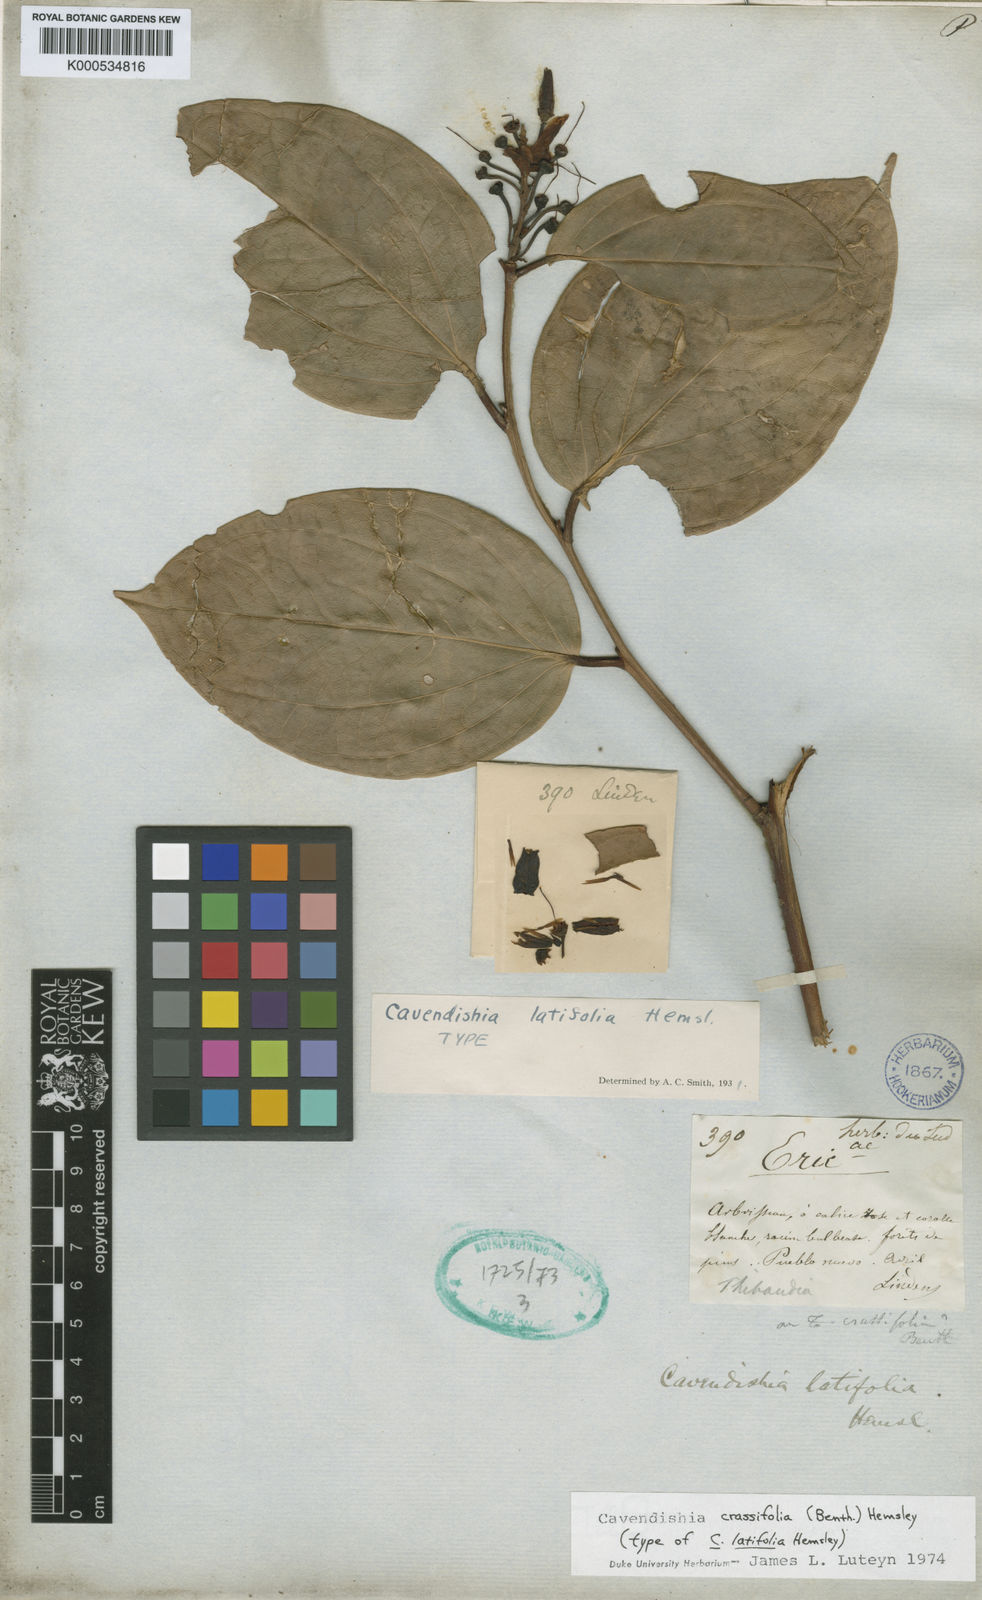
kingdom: Plantae
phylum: Tracheophyta
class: Magnoliopsida
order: Ericales
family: Ericaceae
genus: Cavendishia
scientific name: Cavendishia bracteata
